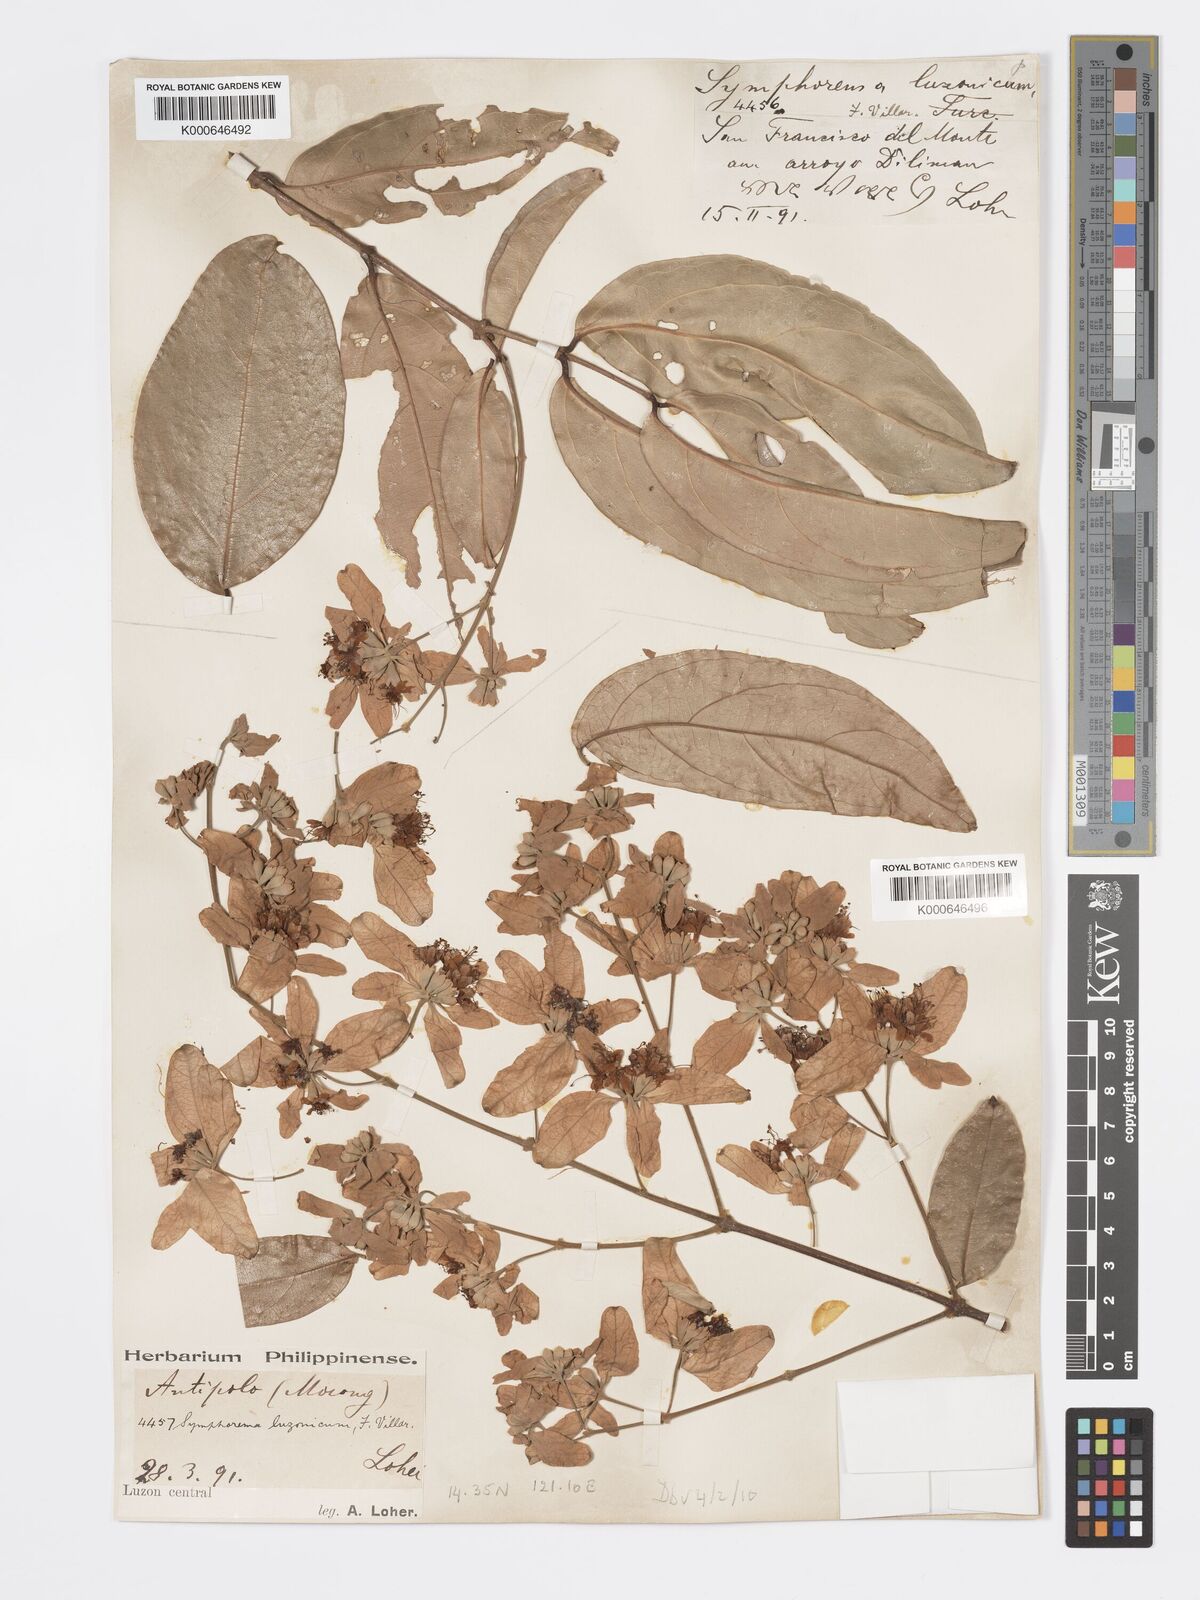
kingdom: Plantae
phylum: Tracheophyta
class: Magnoliopsida
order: Lamiales
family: Lamiaceae
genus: Symphorema
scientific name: Symphorema luzonicum
